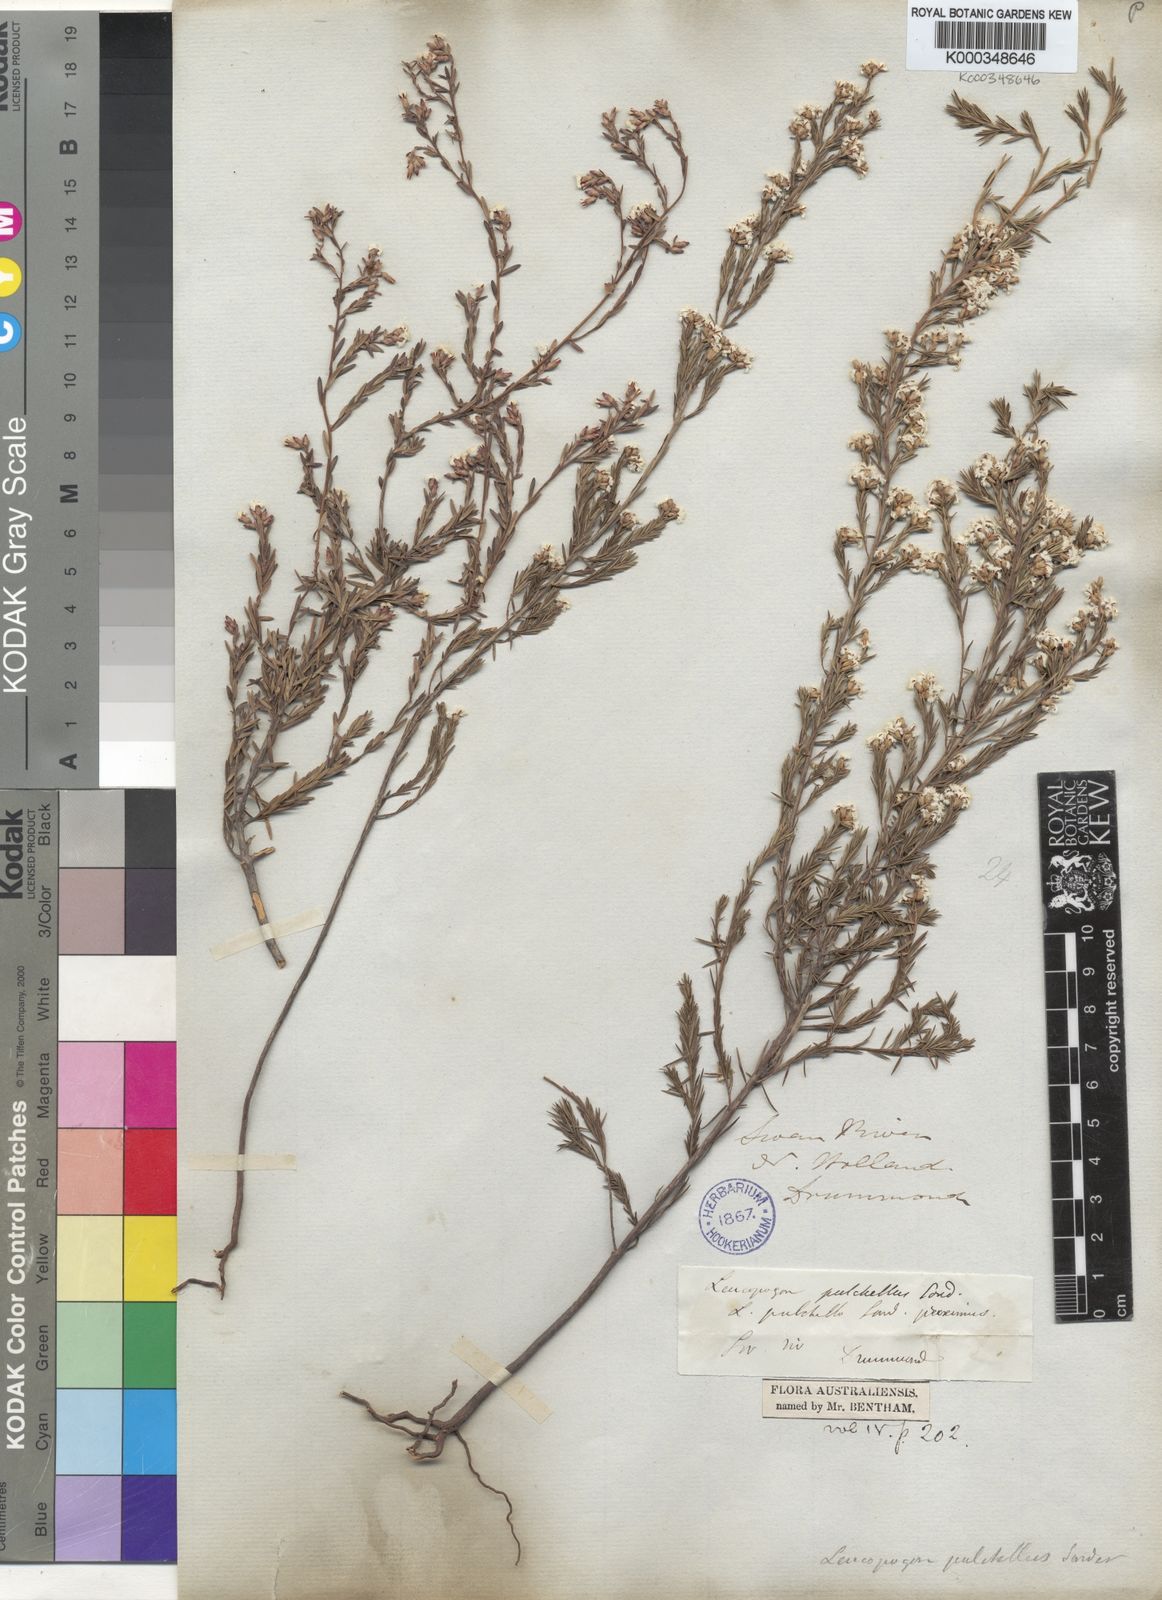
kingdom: Plantae
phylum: Tracheophyta
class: Magnoliopsida
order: Ericales
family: Ericaceae
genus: Leucopogon
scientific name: Leucopogon pulchellus
